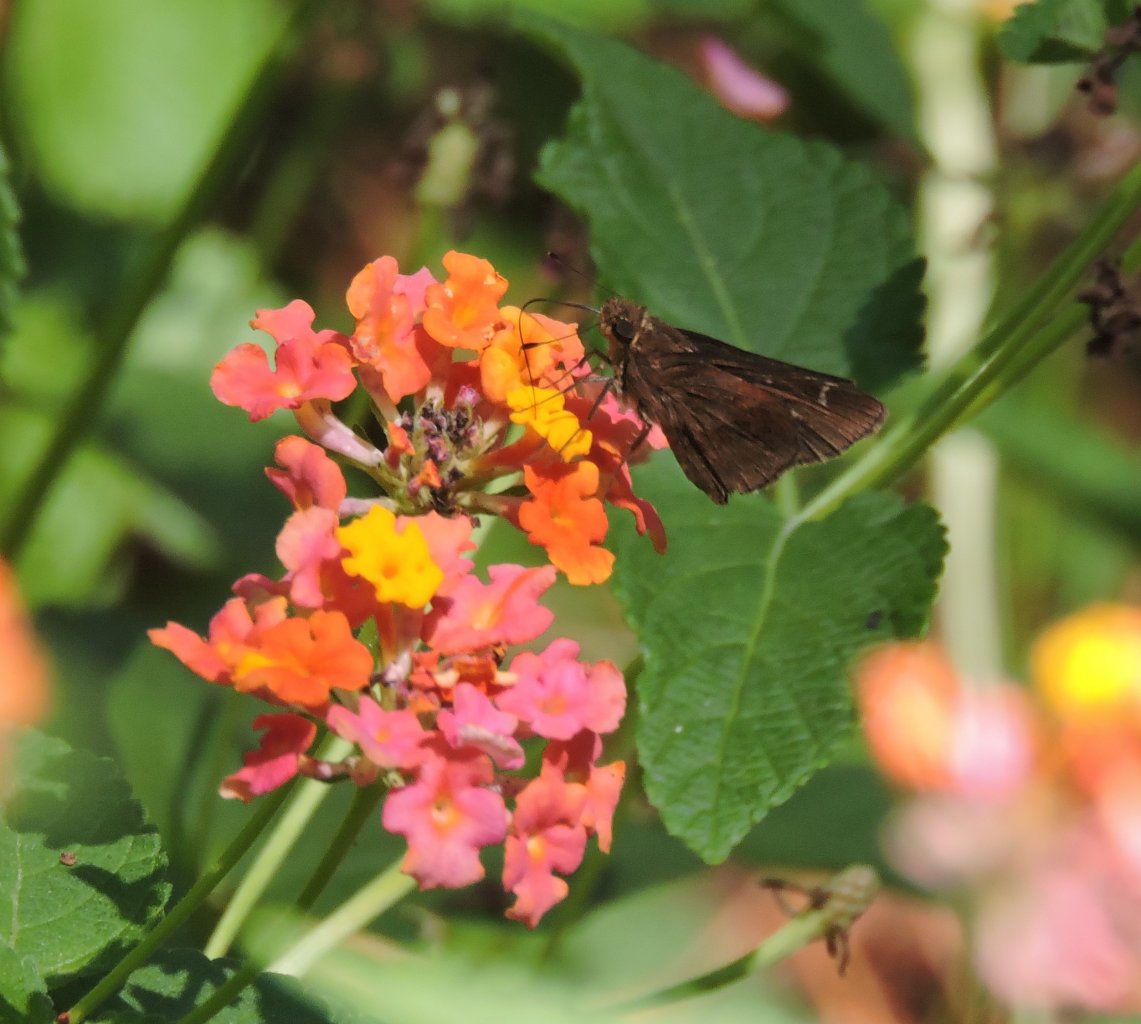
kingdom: Animalia
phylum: Arthropoda
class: Insecta
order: Lepidoptera
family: Hesperiidae
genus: Lerema
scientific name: Lerema accius
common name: Clouded Skipper
